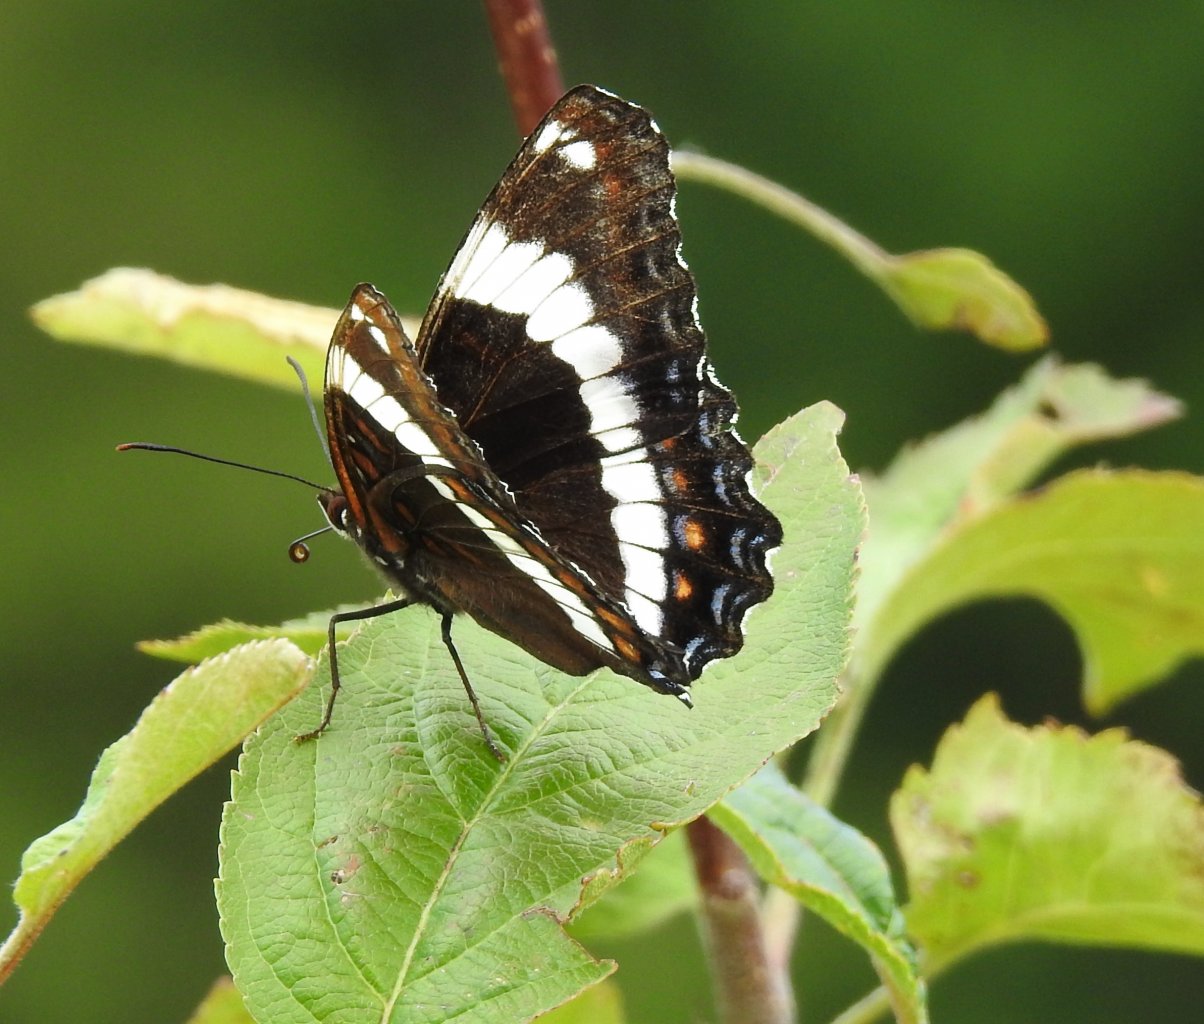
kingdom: Animalia
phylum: Arthropoda
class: Insecta
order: Lepidoptera
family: Nymphalidae
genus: Limenitis
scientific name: Limenitis arthemis
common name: Red-spotted Admiral
